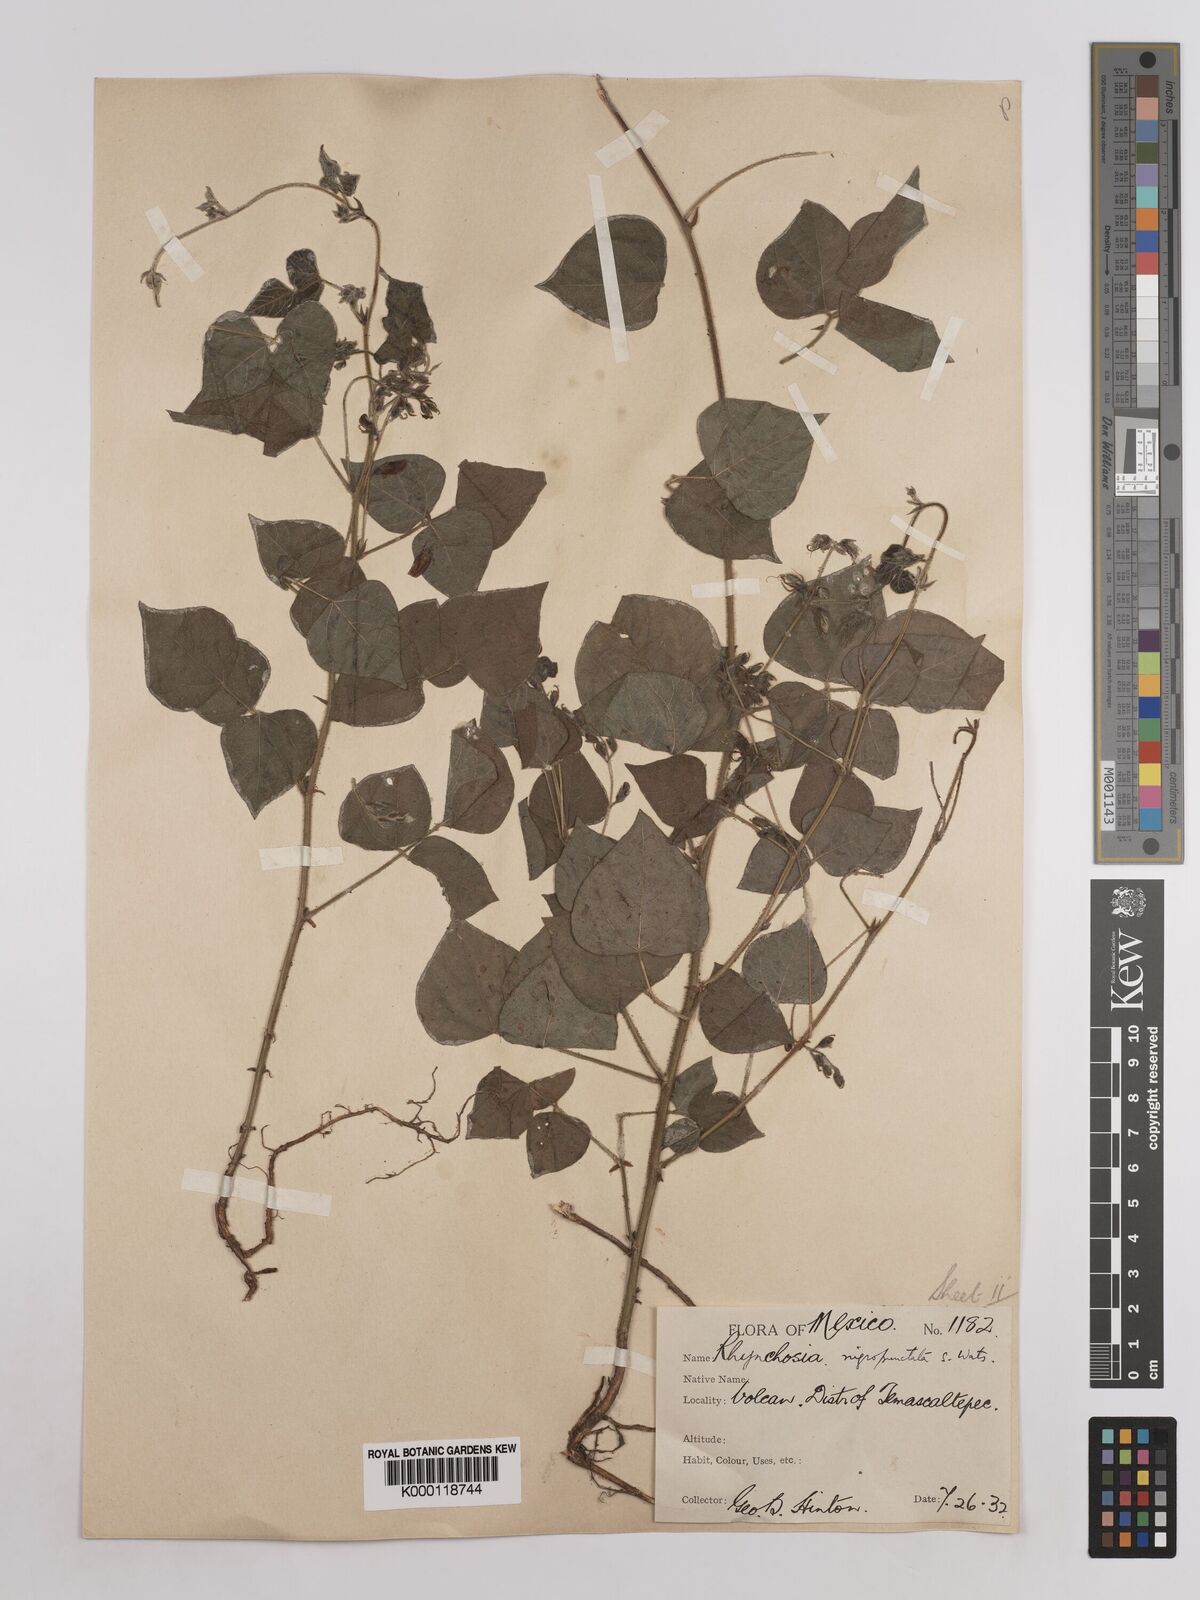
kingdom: Plantae
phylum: Tracheophyta
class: Magnoliopsida
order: Fabales
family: Fabaceae
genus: Rhynchosia
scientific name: Rhynchosia edulis
